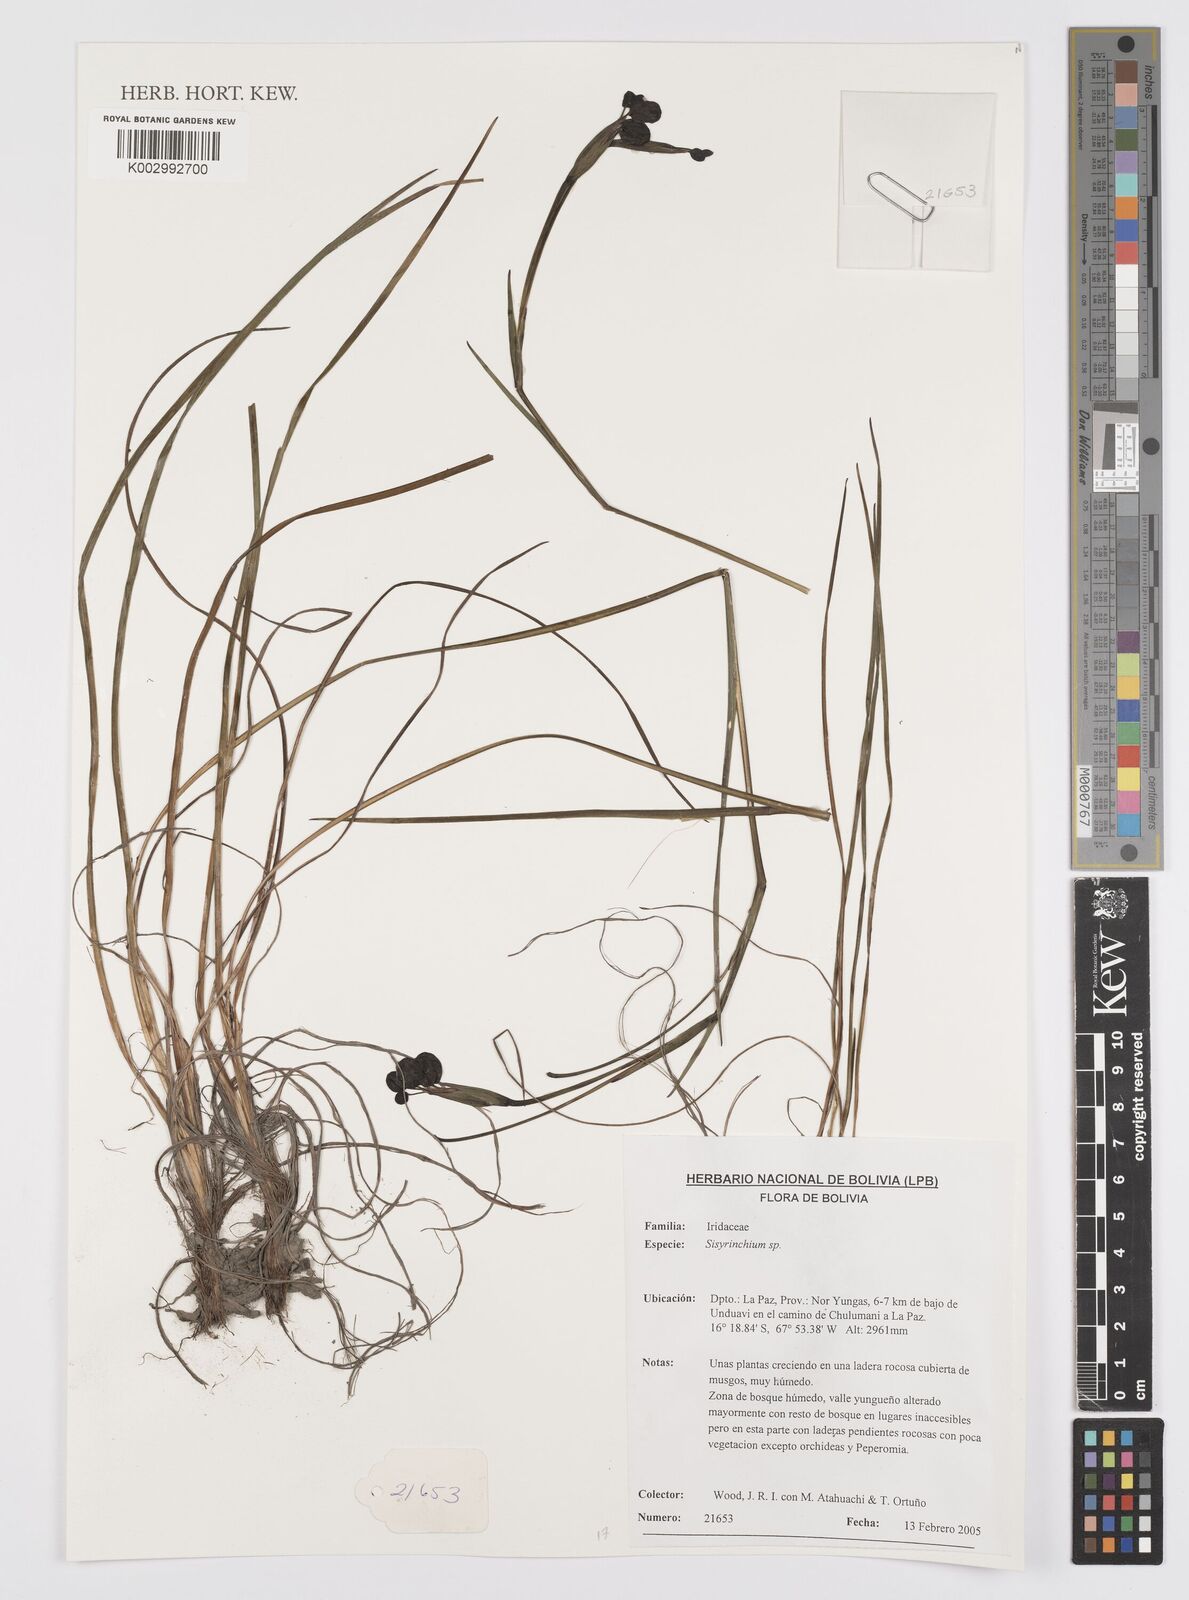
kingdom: Plantae
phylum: Tracheophyta
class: Liliopsida
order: Asparagales
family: Iridaceae
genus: Sisyrinchium
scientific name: Sisyrinchium
